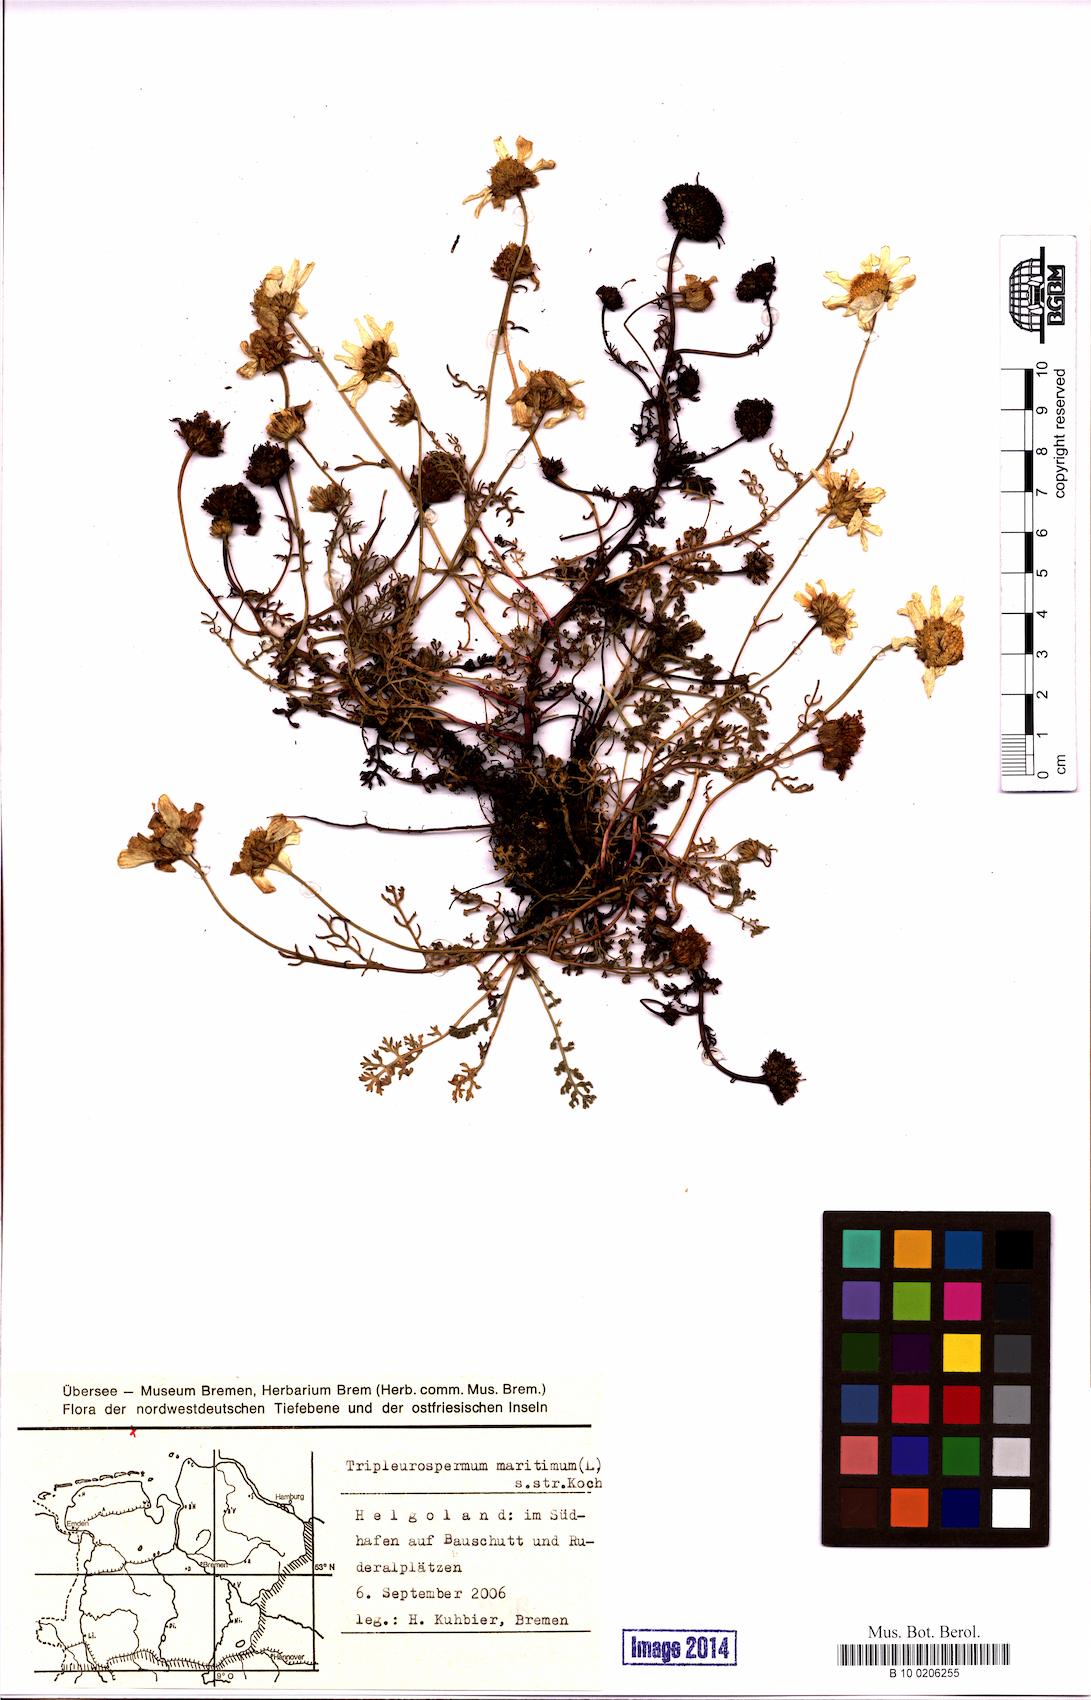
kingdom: Plantae
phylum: Tracheophyta
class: Magnoliopsida
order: Asterales
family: Asteraceae
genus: Tripleurospermum
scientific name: Tripleurospermum maritimum
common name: Sea mayweed
